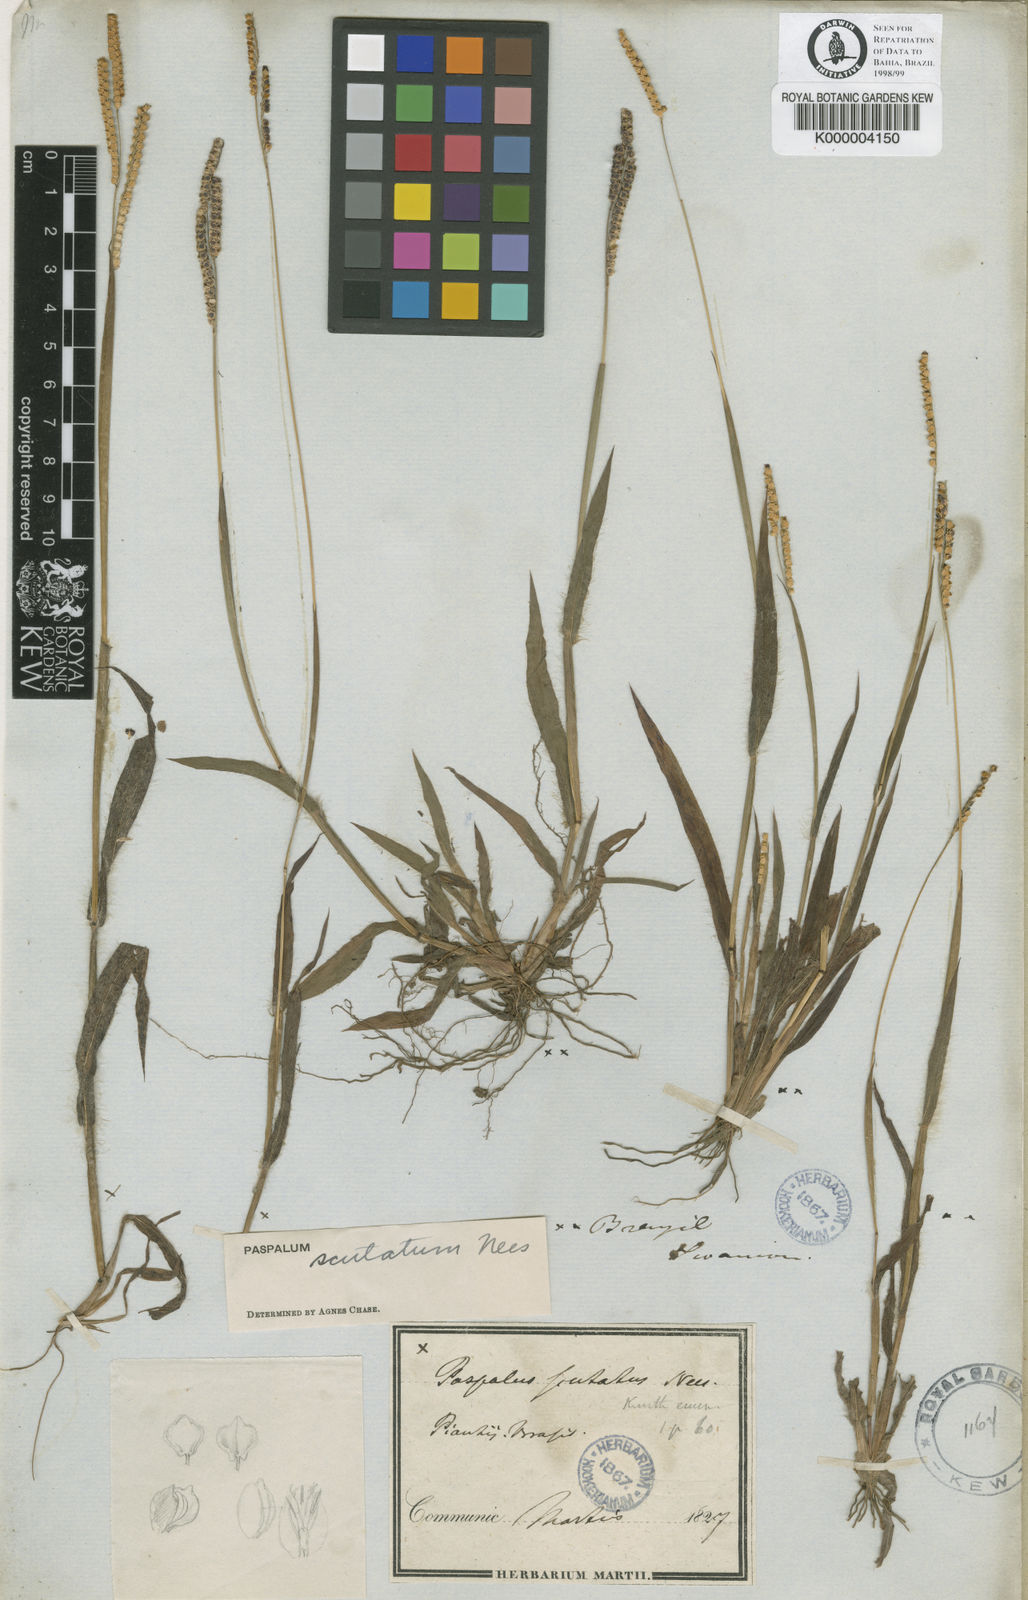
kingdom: Plantae
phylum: Tracheophyta
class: Liliopsida
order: Poales
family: Poaceae
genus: Paspalum
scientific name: Paspalum scutatum
